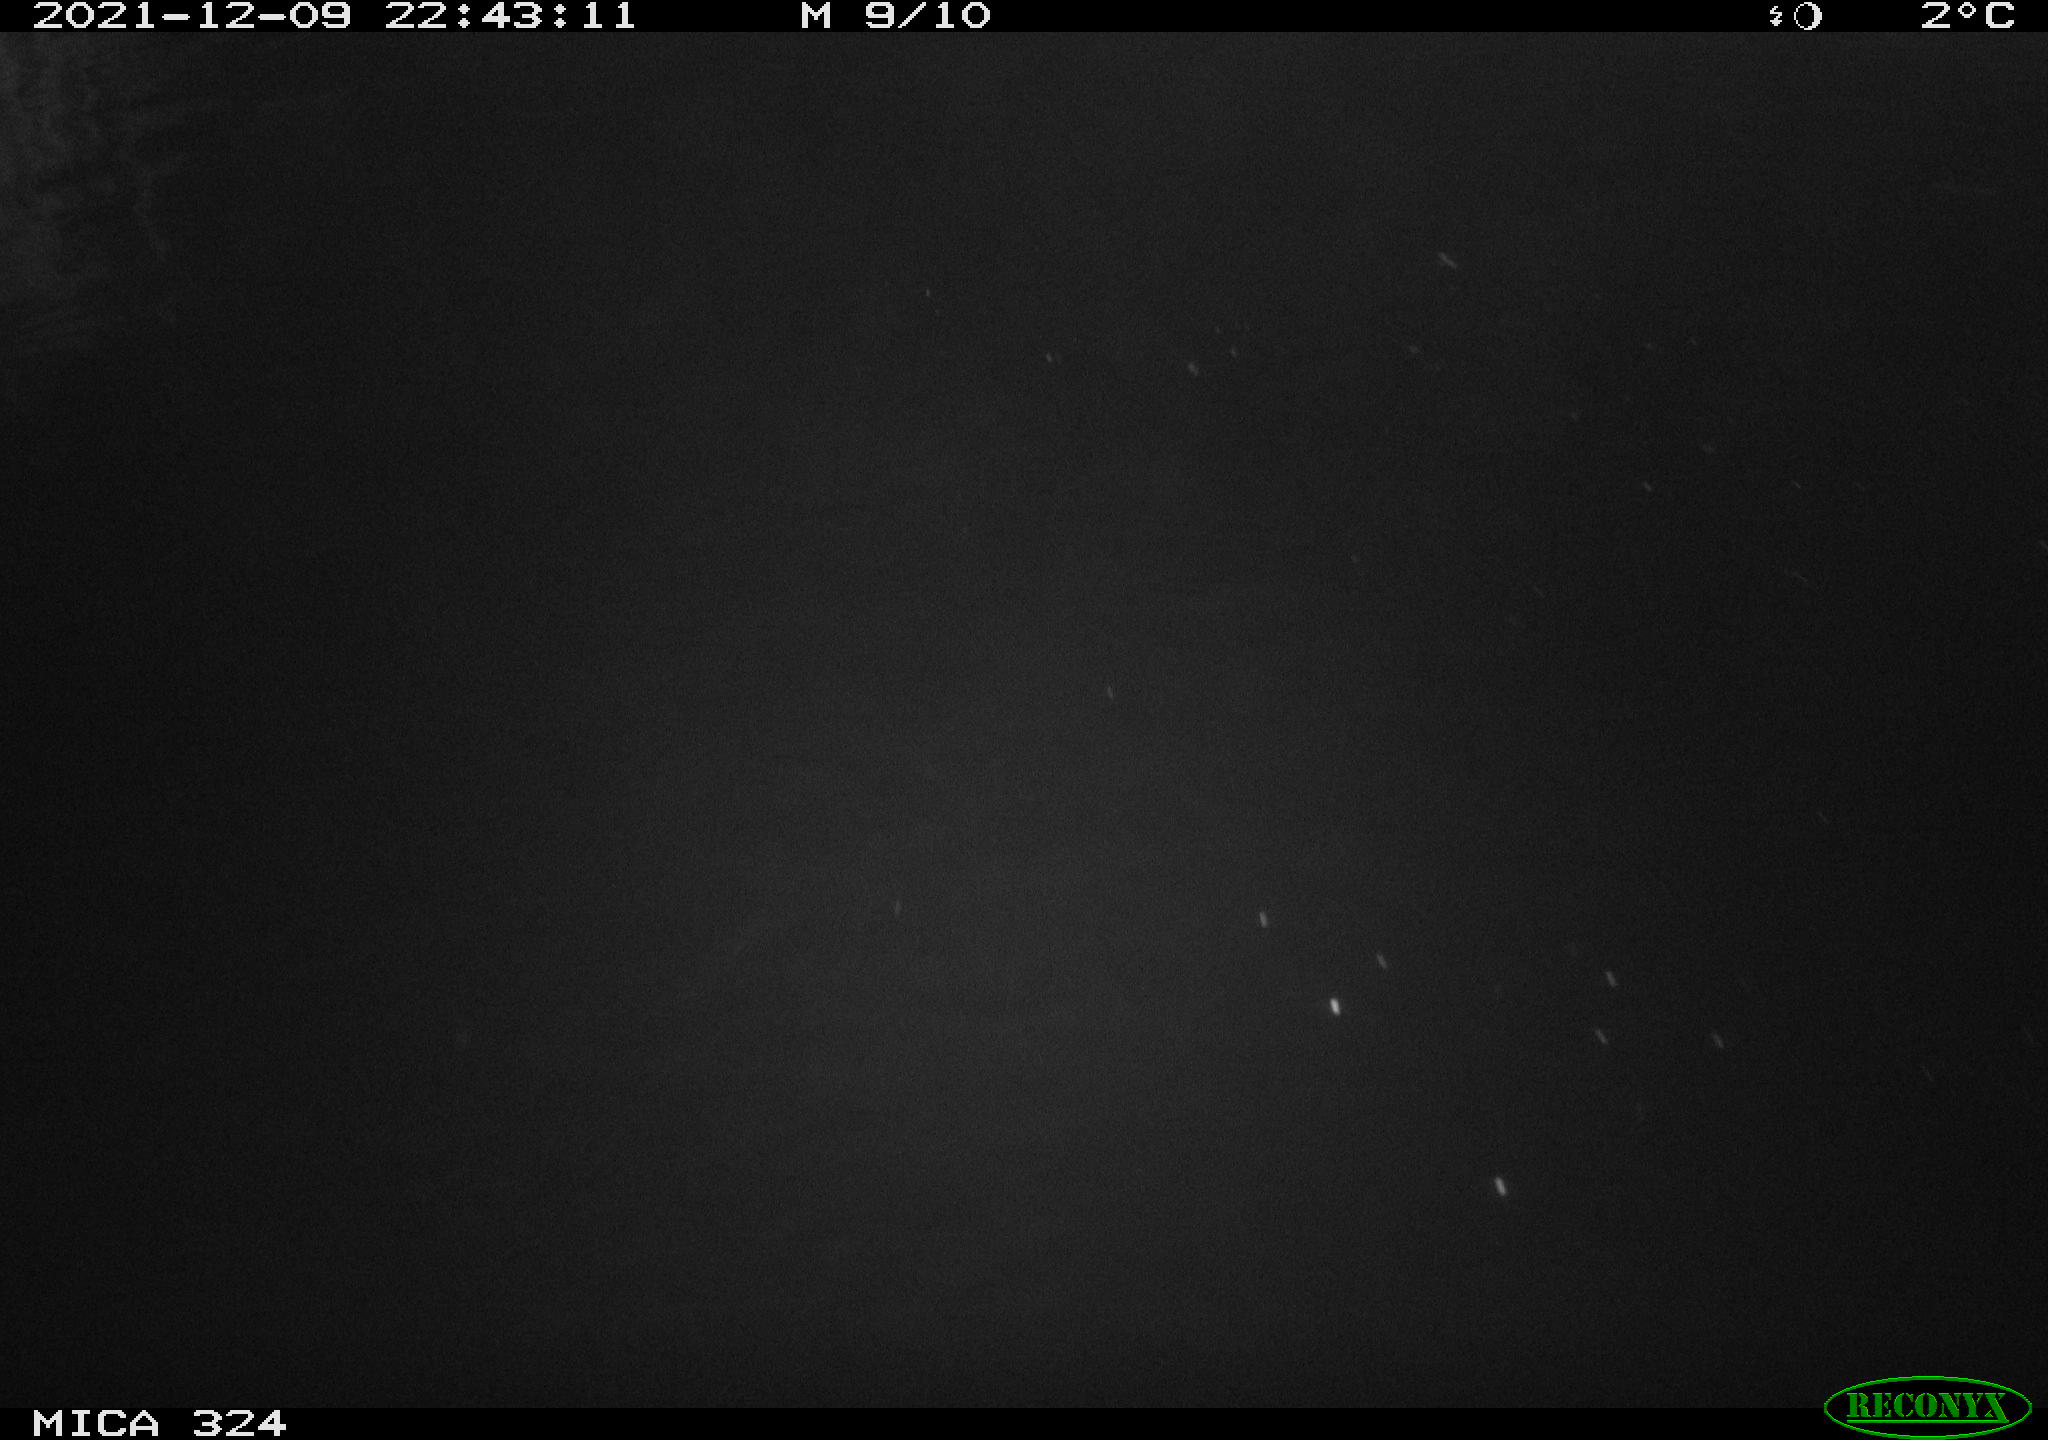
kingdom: Animalia
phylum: Chordata
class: Mammalia
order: Rodentia
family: Cricetidae
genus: Ondatra
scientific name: Ondatra zibethicus
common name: Muskrat
